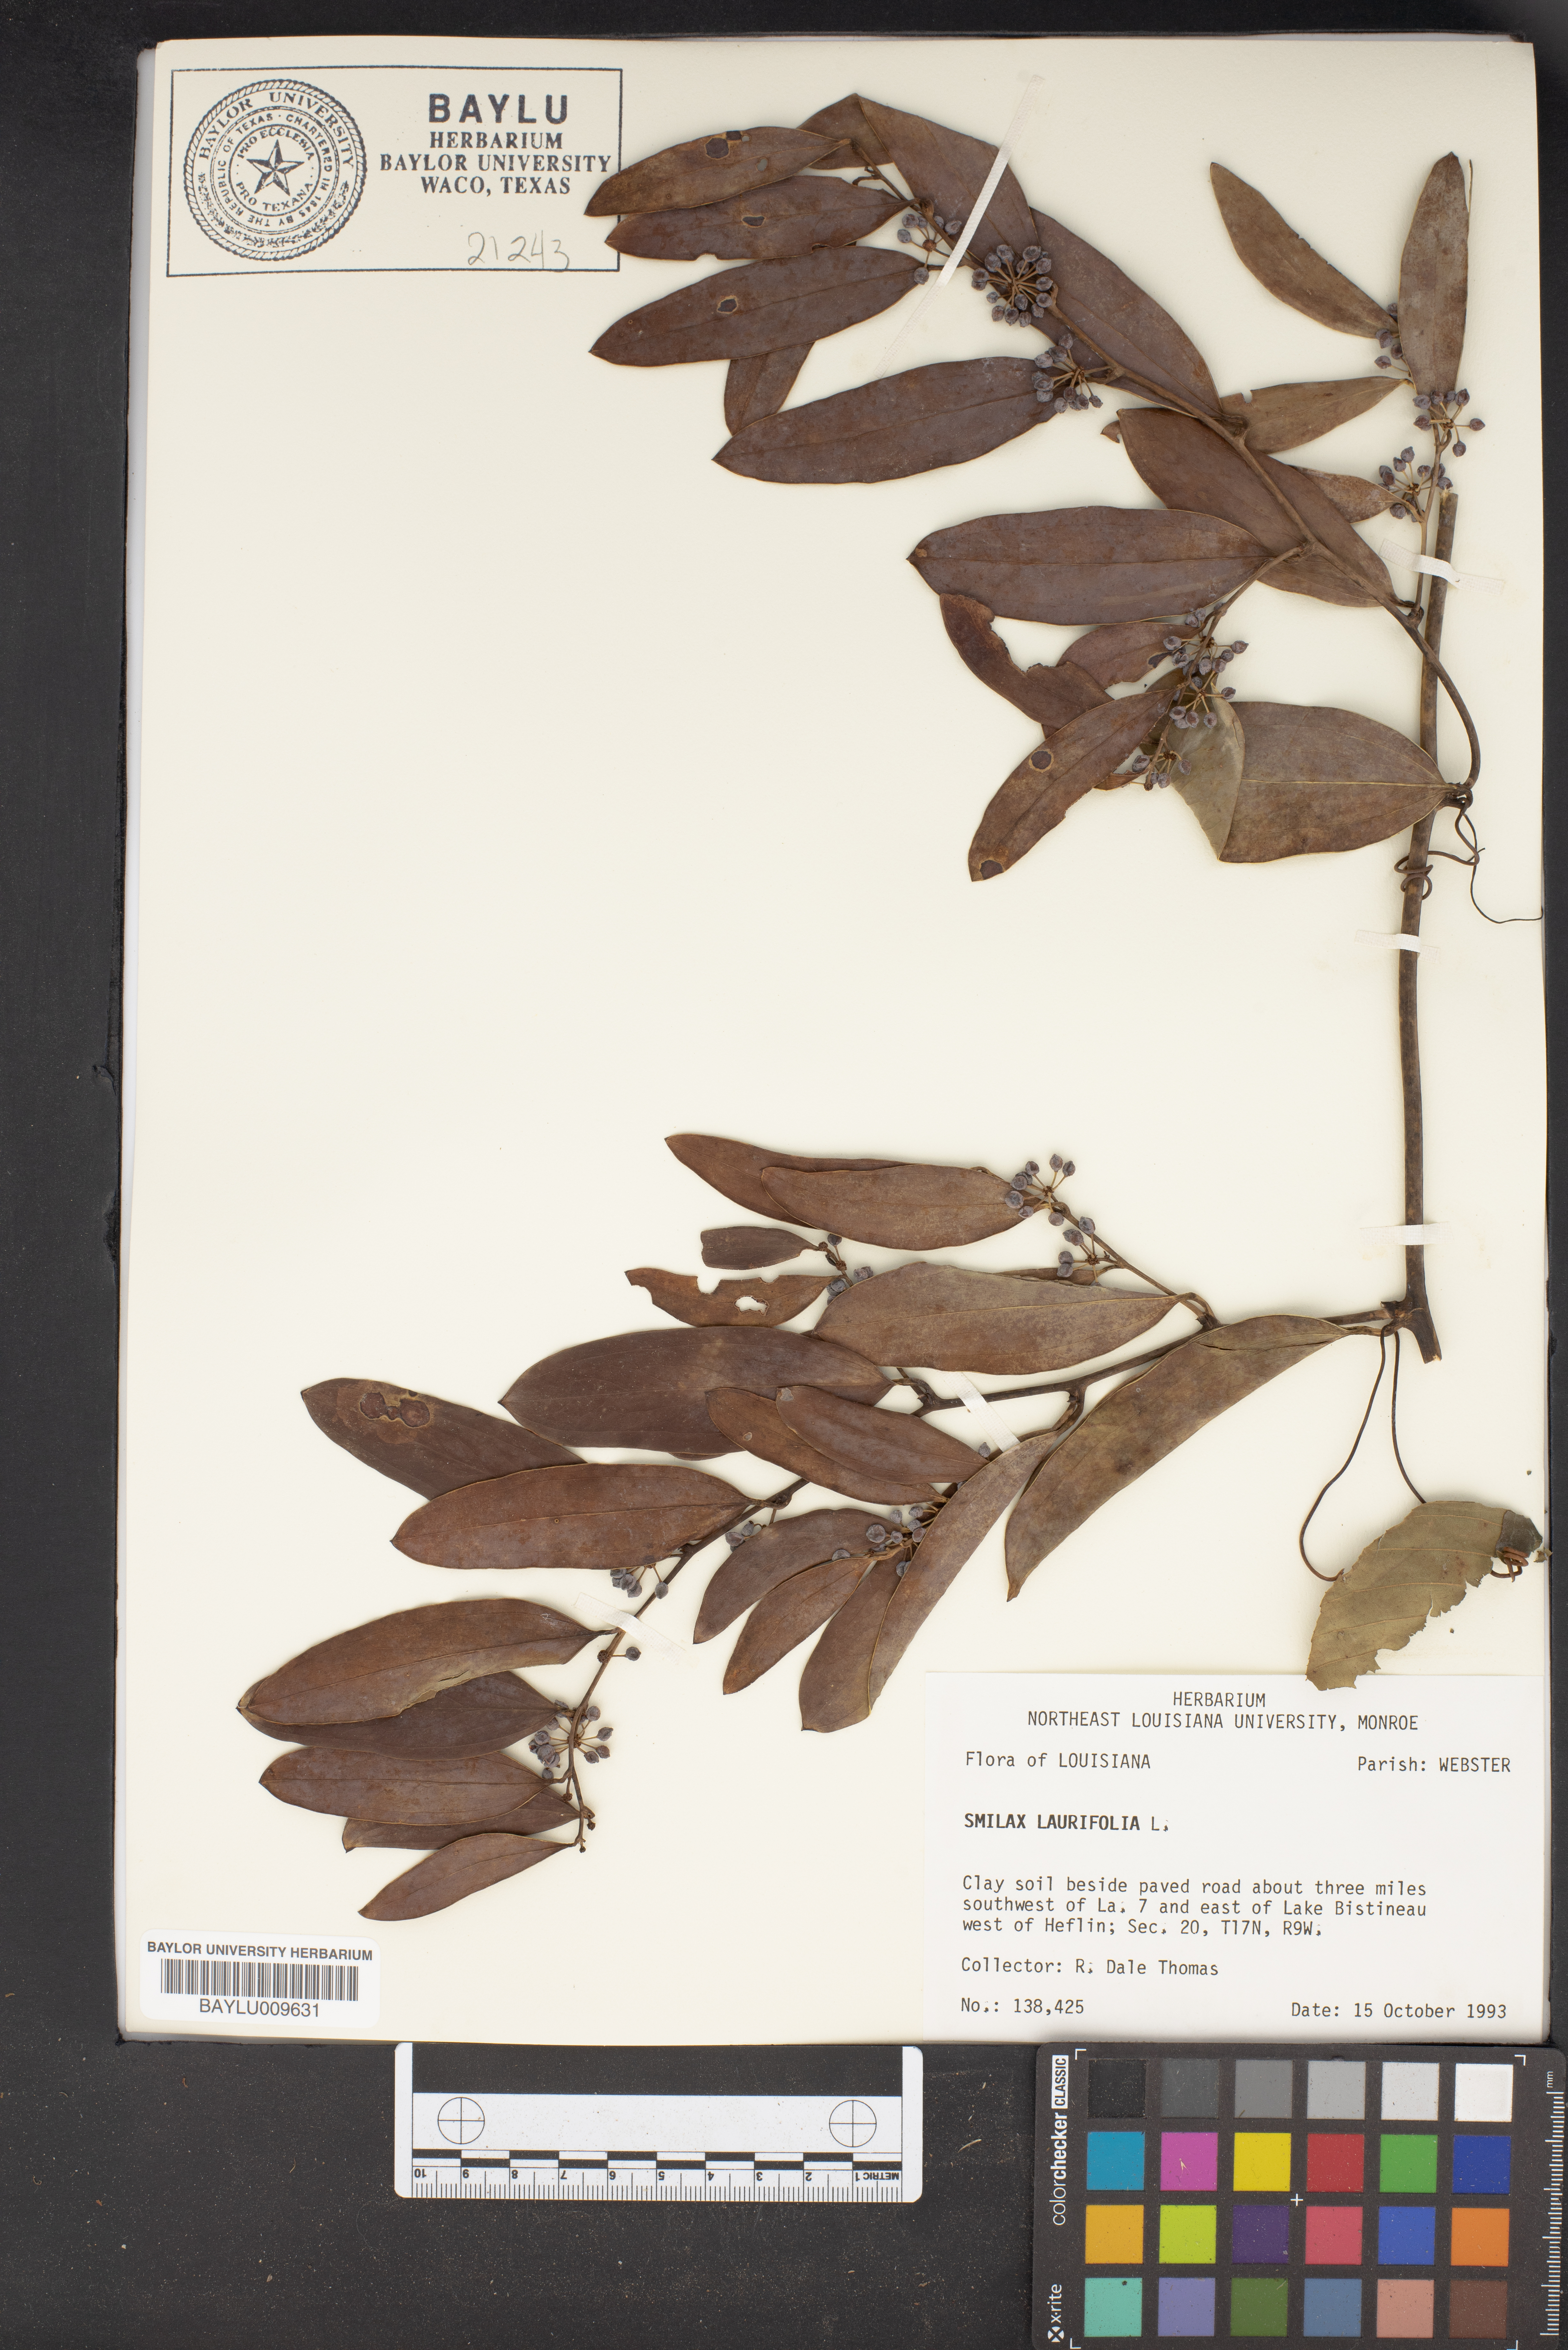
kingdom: Plantae
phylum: Tracheophyta
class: Liliopsida
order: Liliales
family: Smilacaceae
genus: Smilax
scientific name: Smilax laurifolia
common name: Bamboovine
